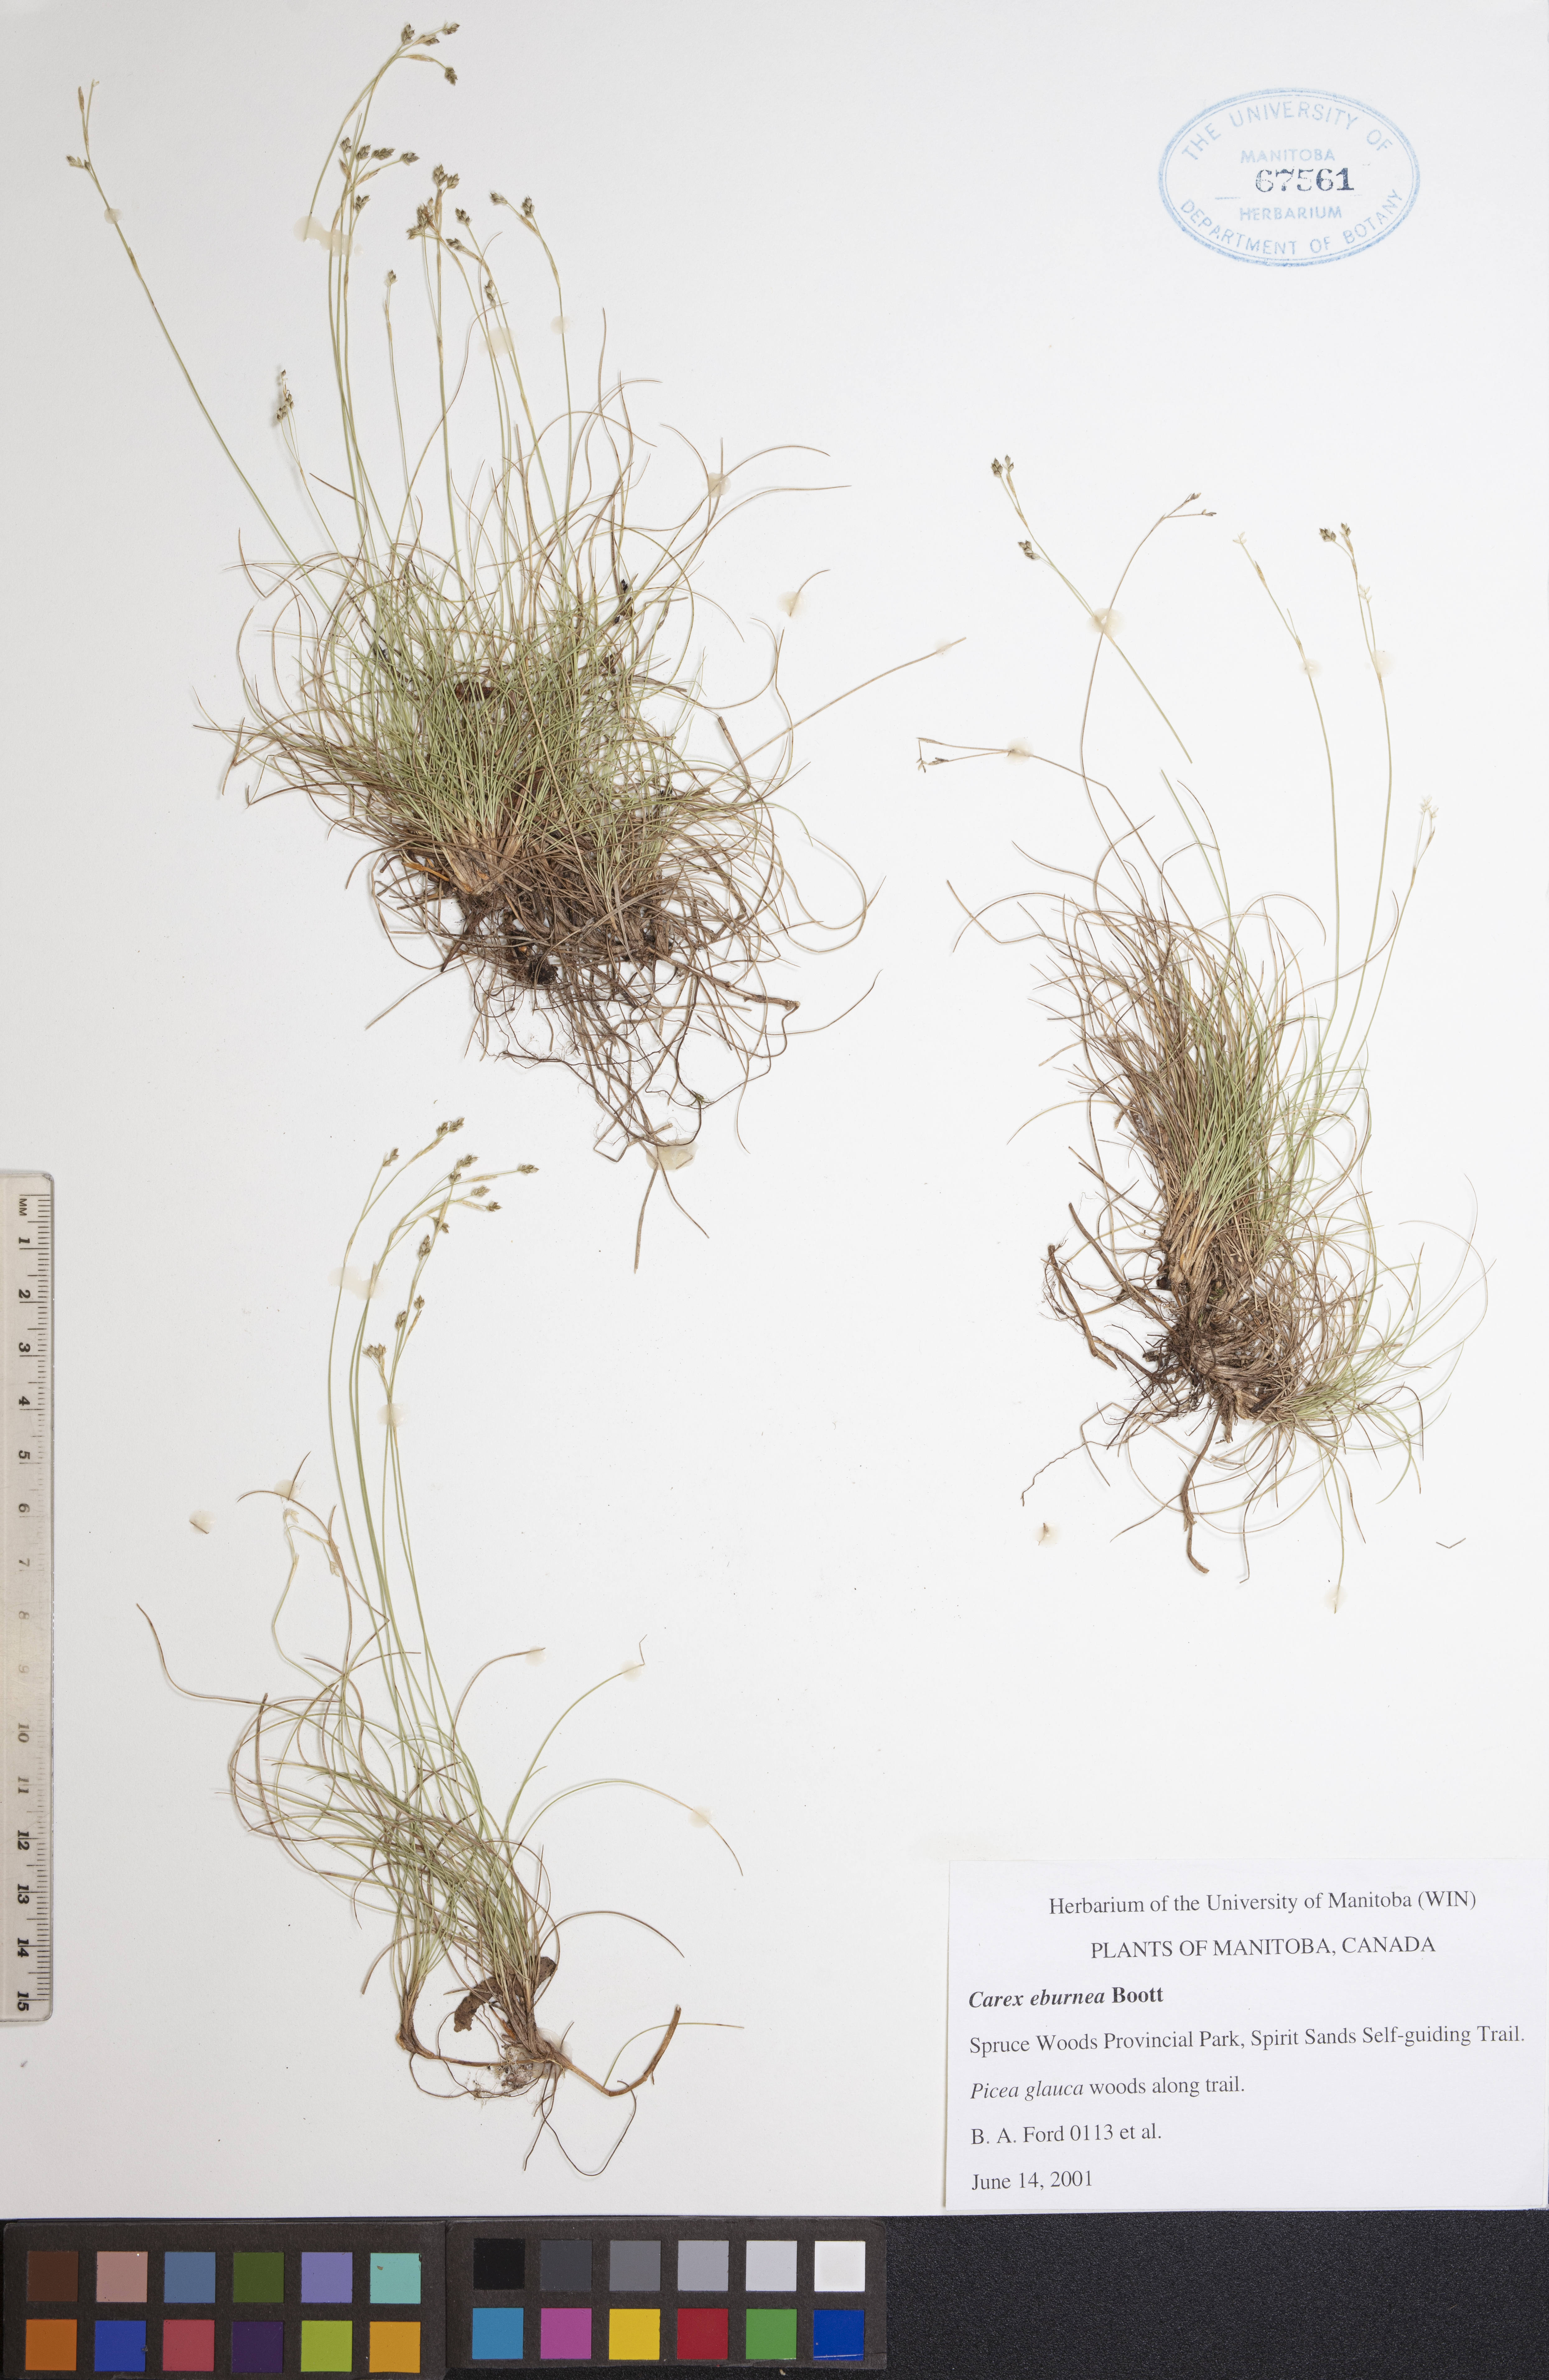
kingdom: Plantae
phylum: Tracheophyta
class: Liliopsida
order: Poales
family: Cyperaceae
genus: Carex
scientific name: Carex eburnea
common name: Bristle-leaved sedge
